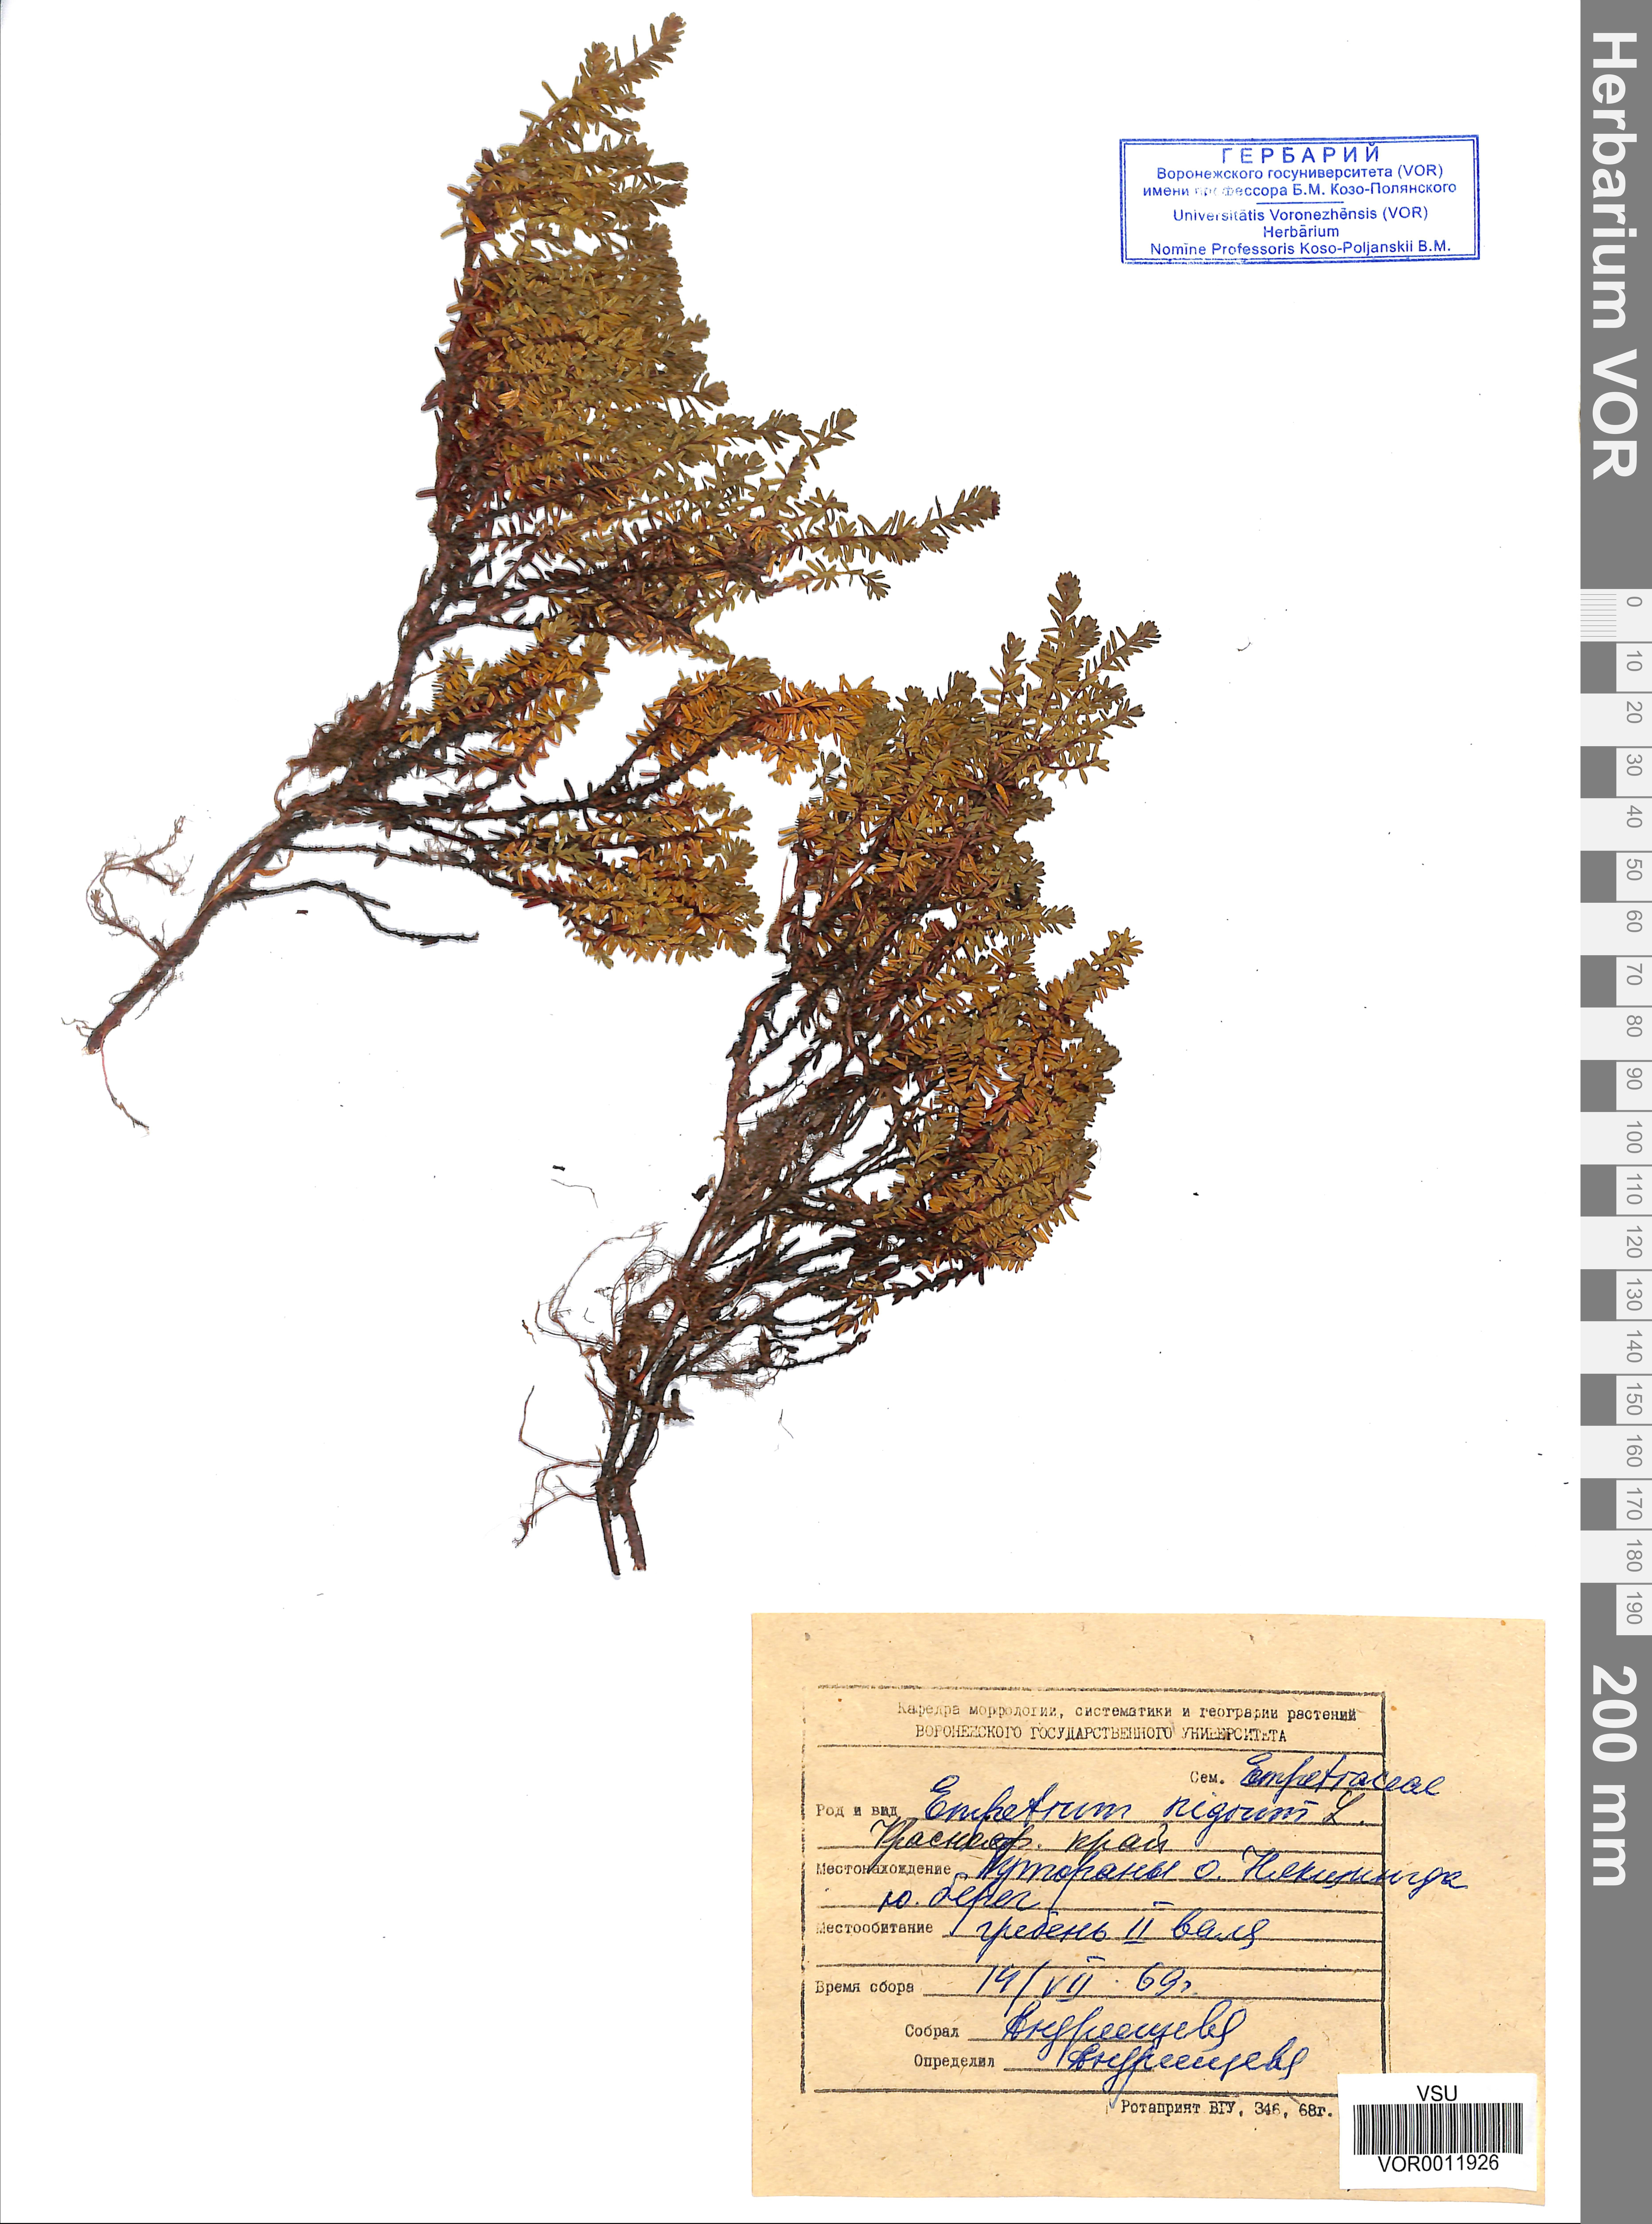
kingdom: Plantae
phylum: Tracheophyta
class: Magnoliopsida
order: Ericales
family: Ericaceae
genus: Empetrum
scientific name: Empetrum nigrum
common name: Black crowberry
